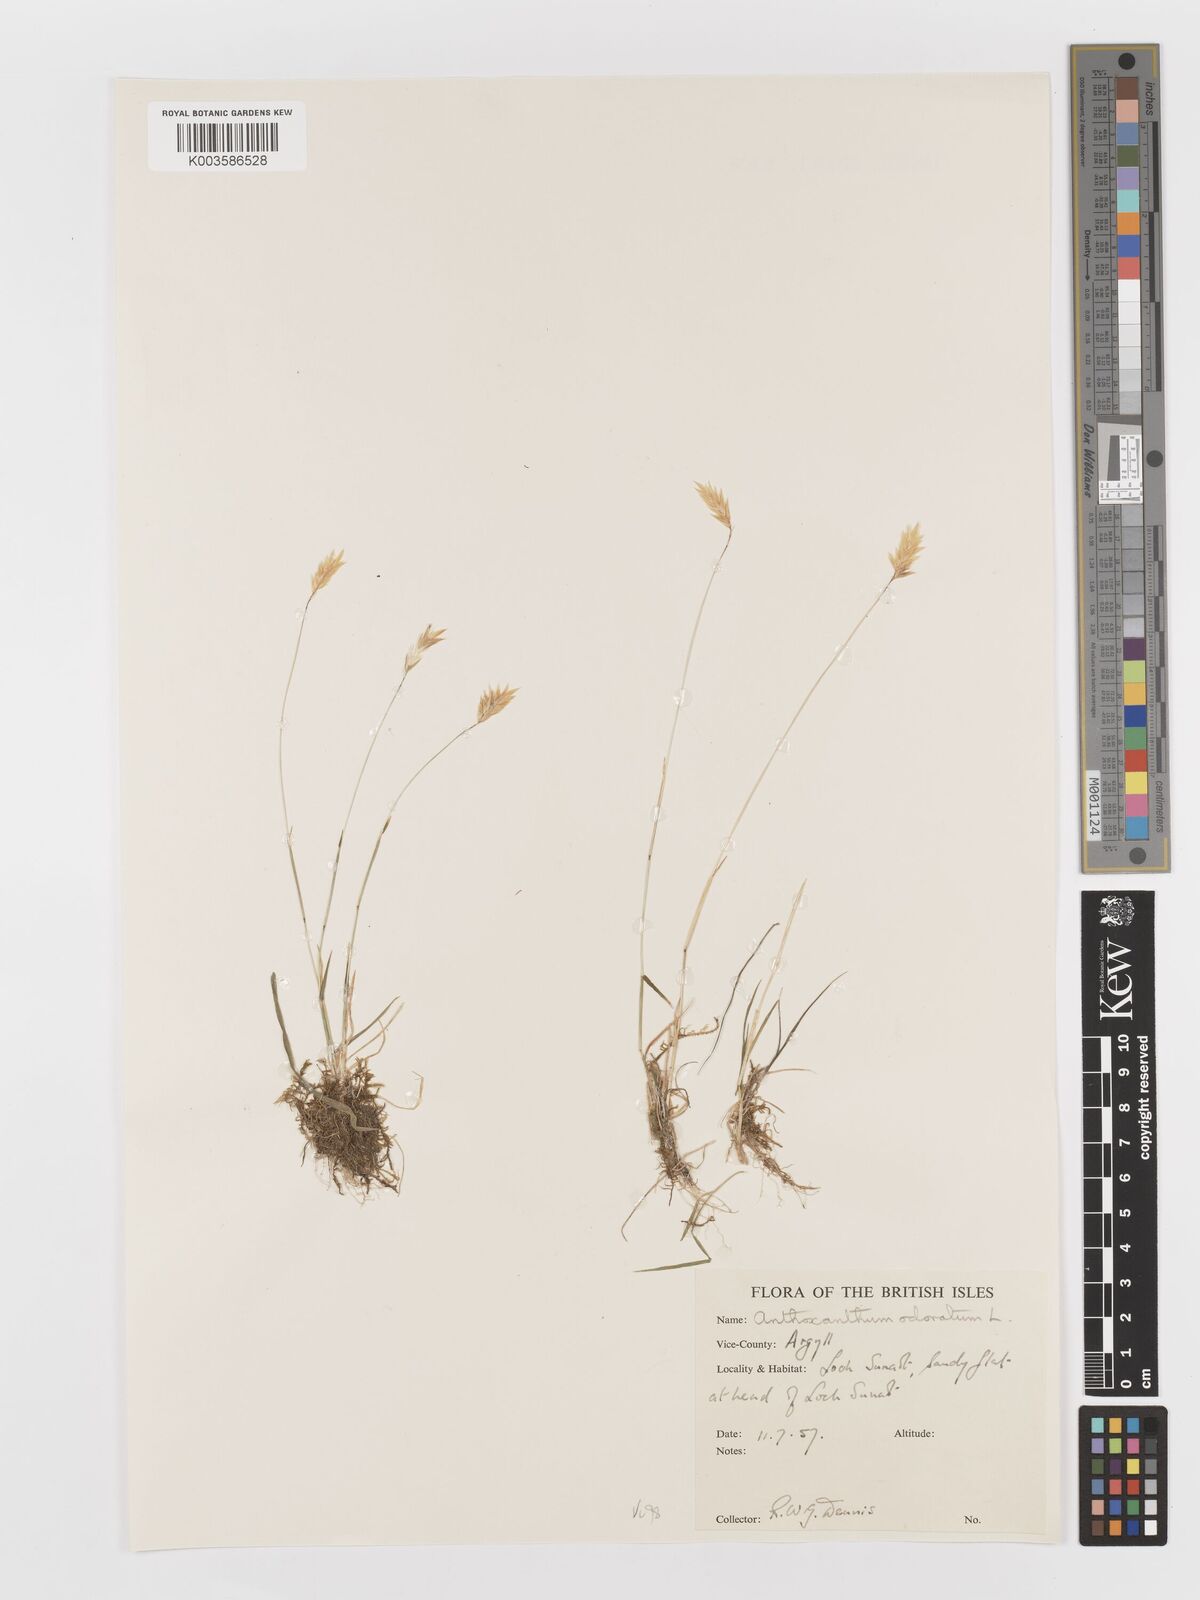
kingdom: Plantae
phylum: Tracheophyta
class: Liliopsida
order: Poales
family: Poaceae
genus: Anthoxanthum
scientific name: Anthoxanthum odoratum
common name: Sweet vernalgrass
